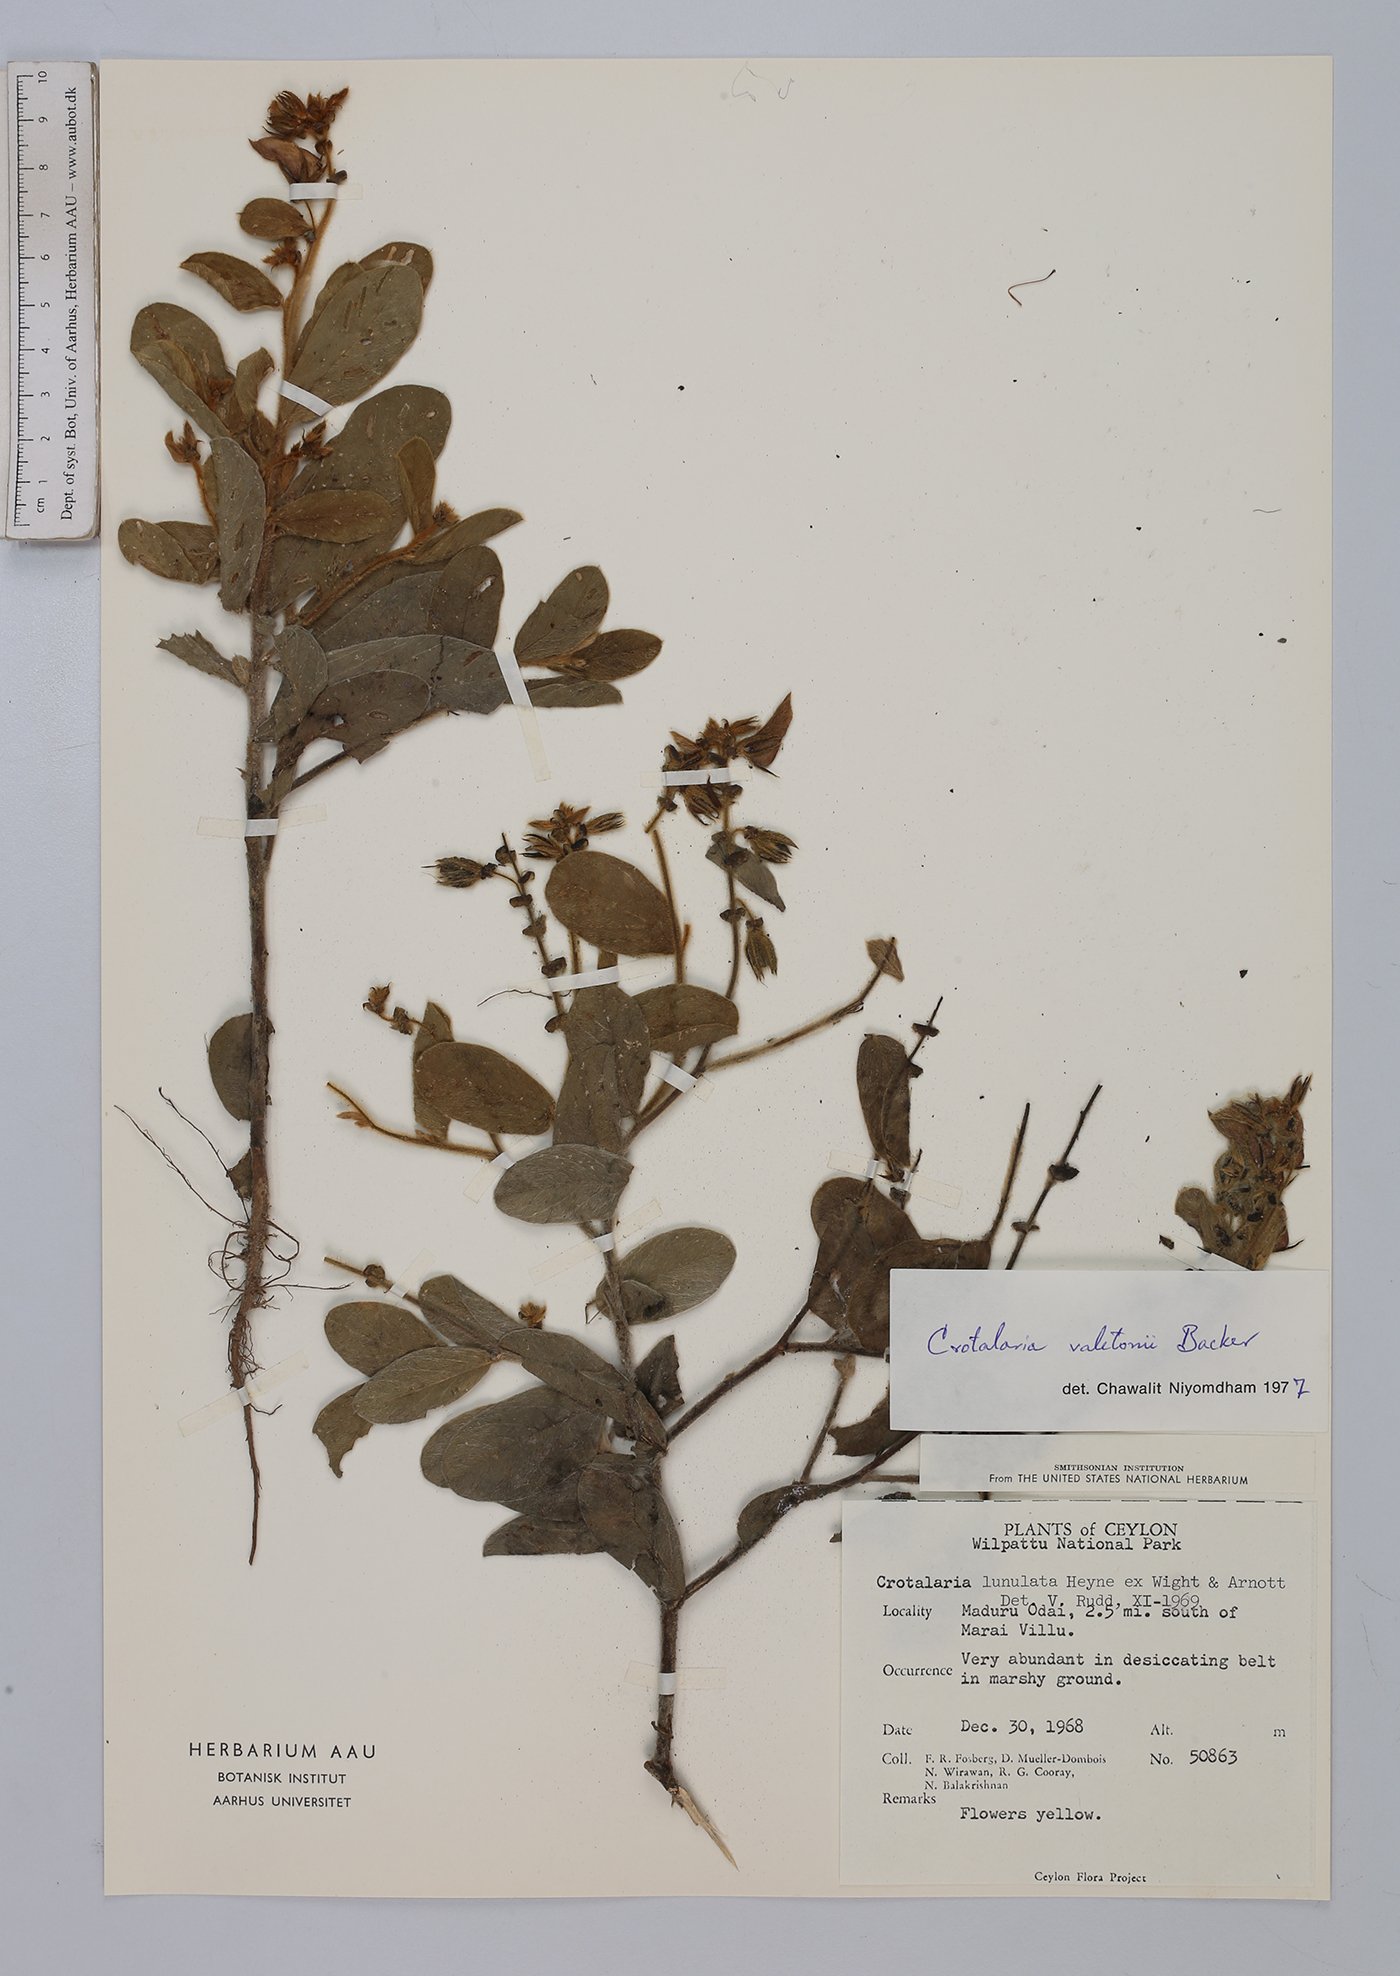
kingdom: Plantae
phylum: Tracheophyta
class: Magnoliopsida
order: Fabales
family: Fabaceae
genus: Crotalaria
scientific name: Crotalaria valetonii
